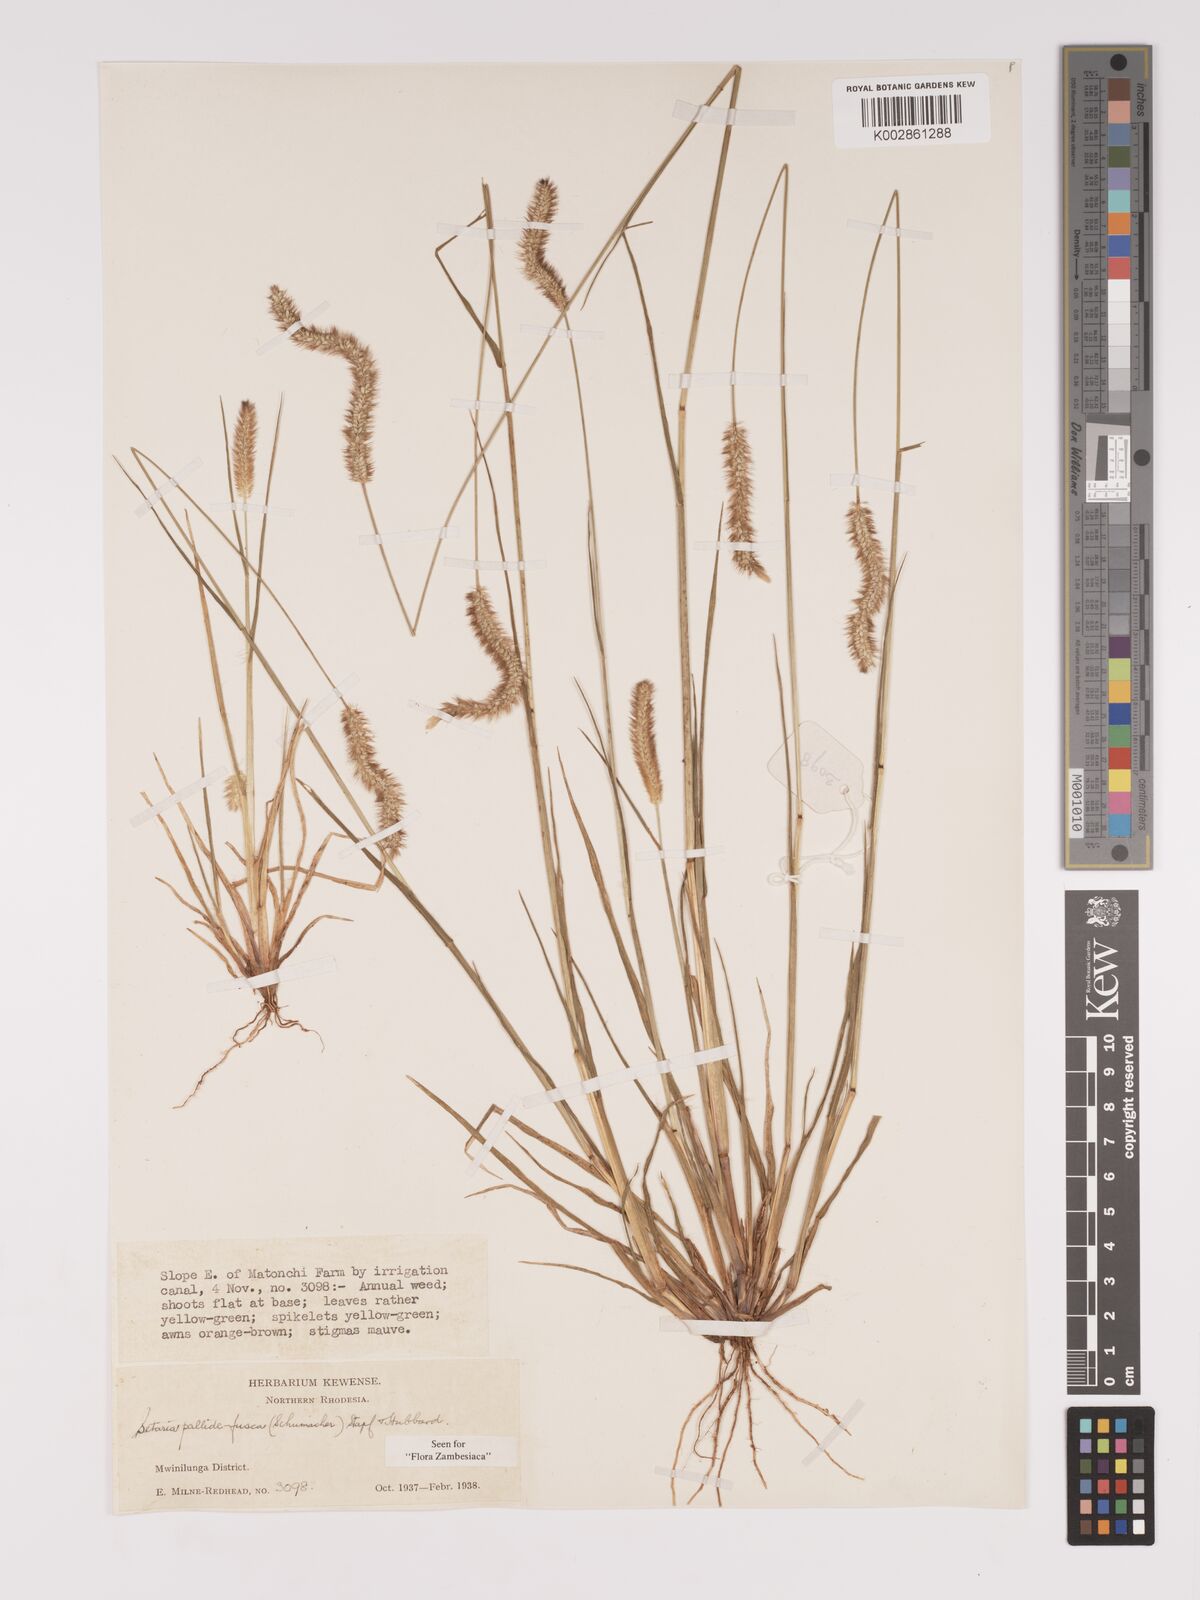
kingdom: Plantae
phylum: Tracheophyta
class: Liliopsida
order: Poales
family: Poaceae
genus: Setaria
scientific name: Setaria pumila
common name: Yellow bristle-grass
